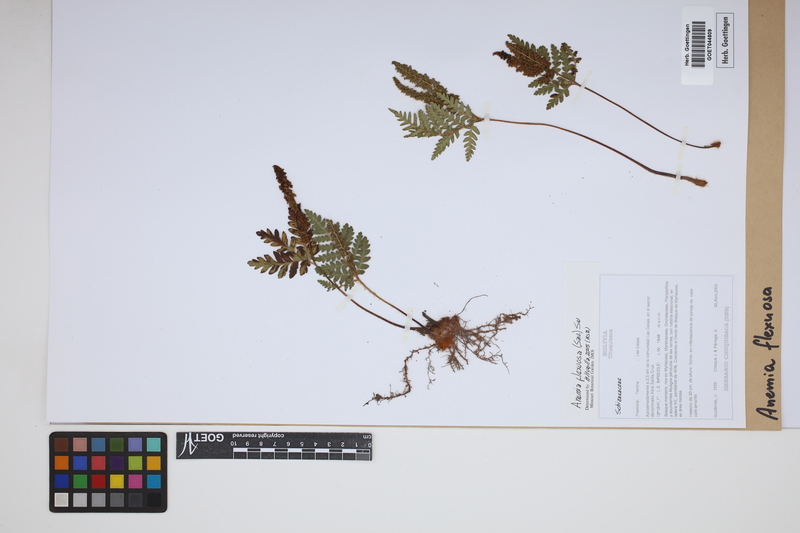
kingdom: Plantae
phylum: Tracheophyta
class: Polypodiopsida
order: Schizaeales
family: Anemiaceae
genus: Anemia
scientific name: Anemia flexuosa
